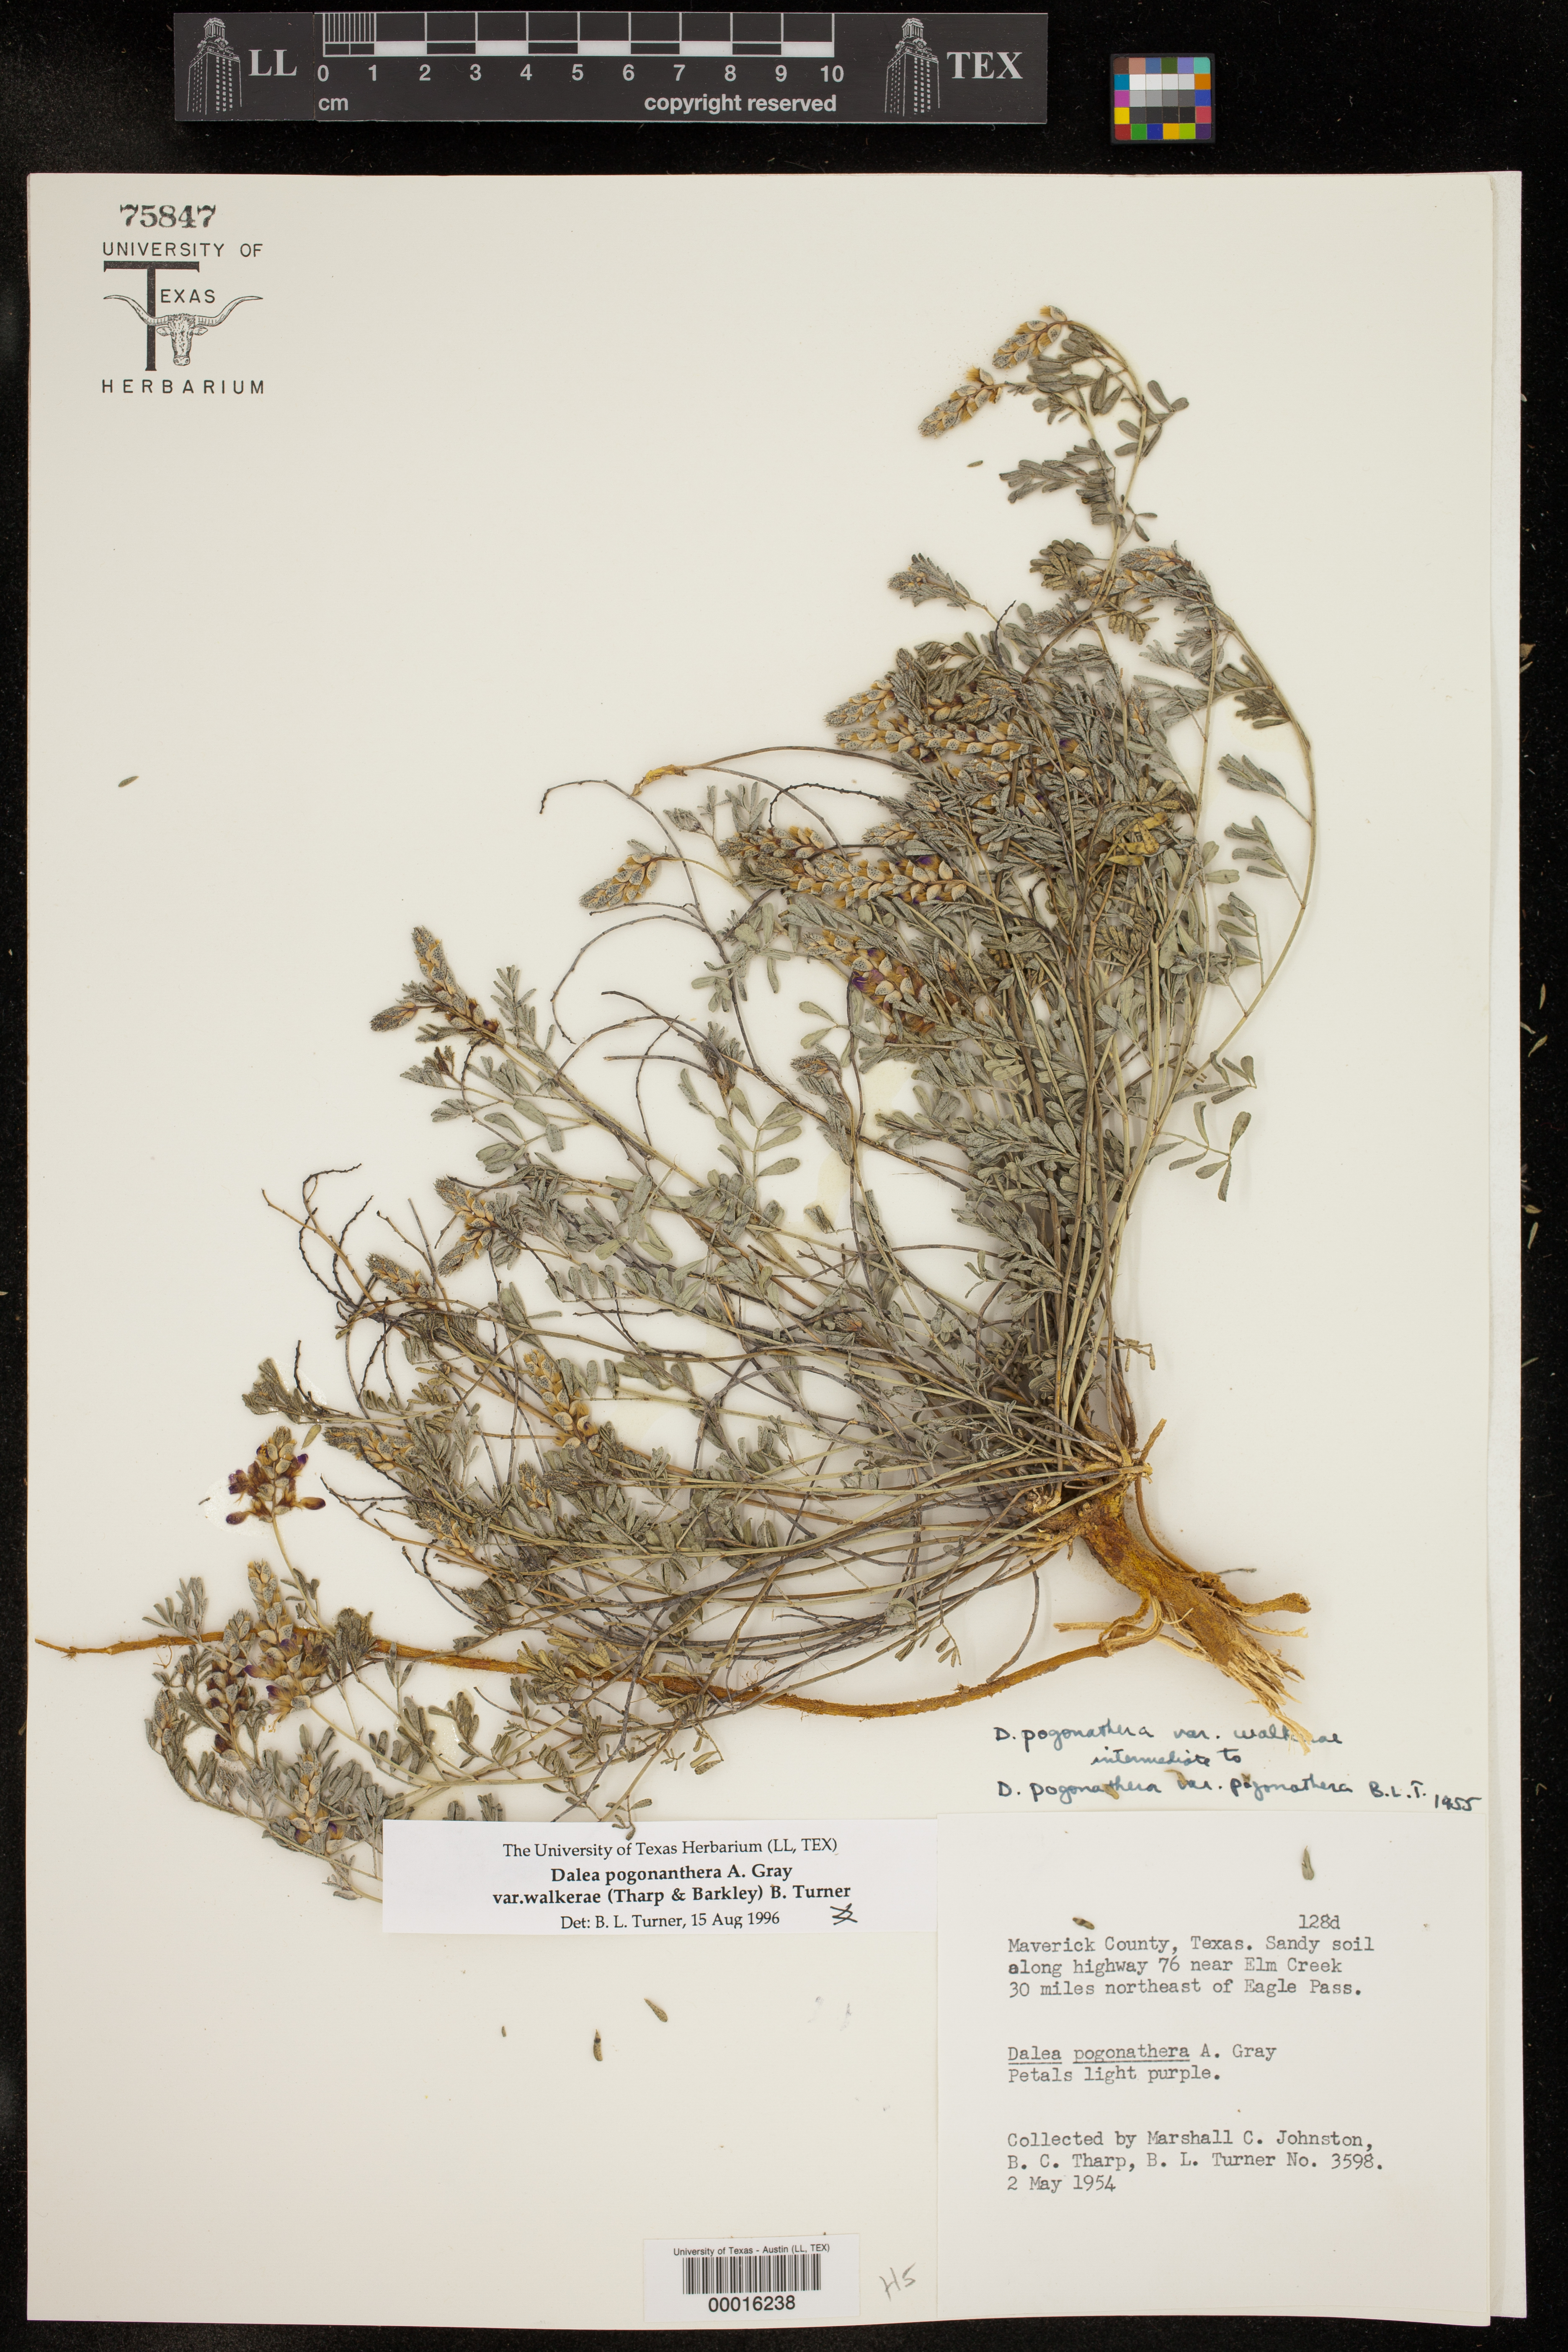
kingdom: Plantae
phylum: Tracheophyta
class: Magnoliopsida
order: Fabales
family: Fabaceae
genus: Dalea
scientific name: Dalea pogonathera
